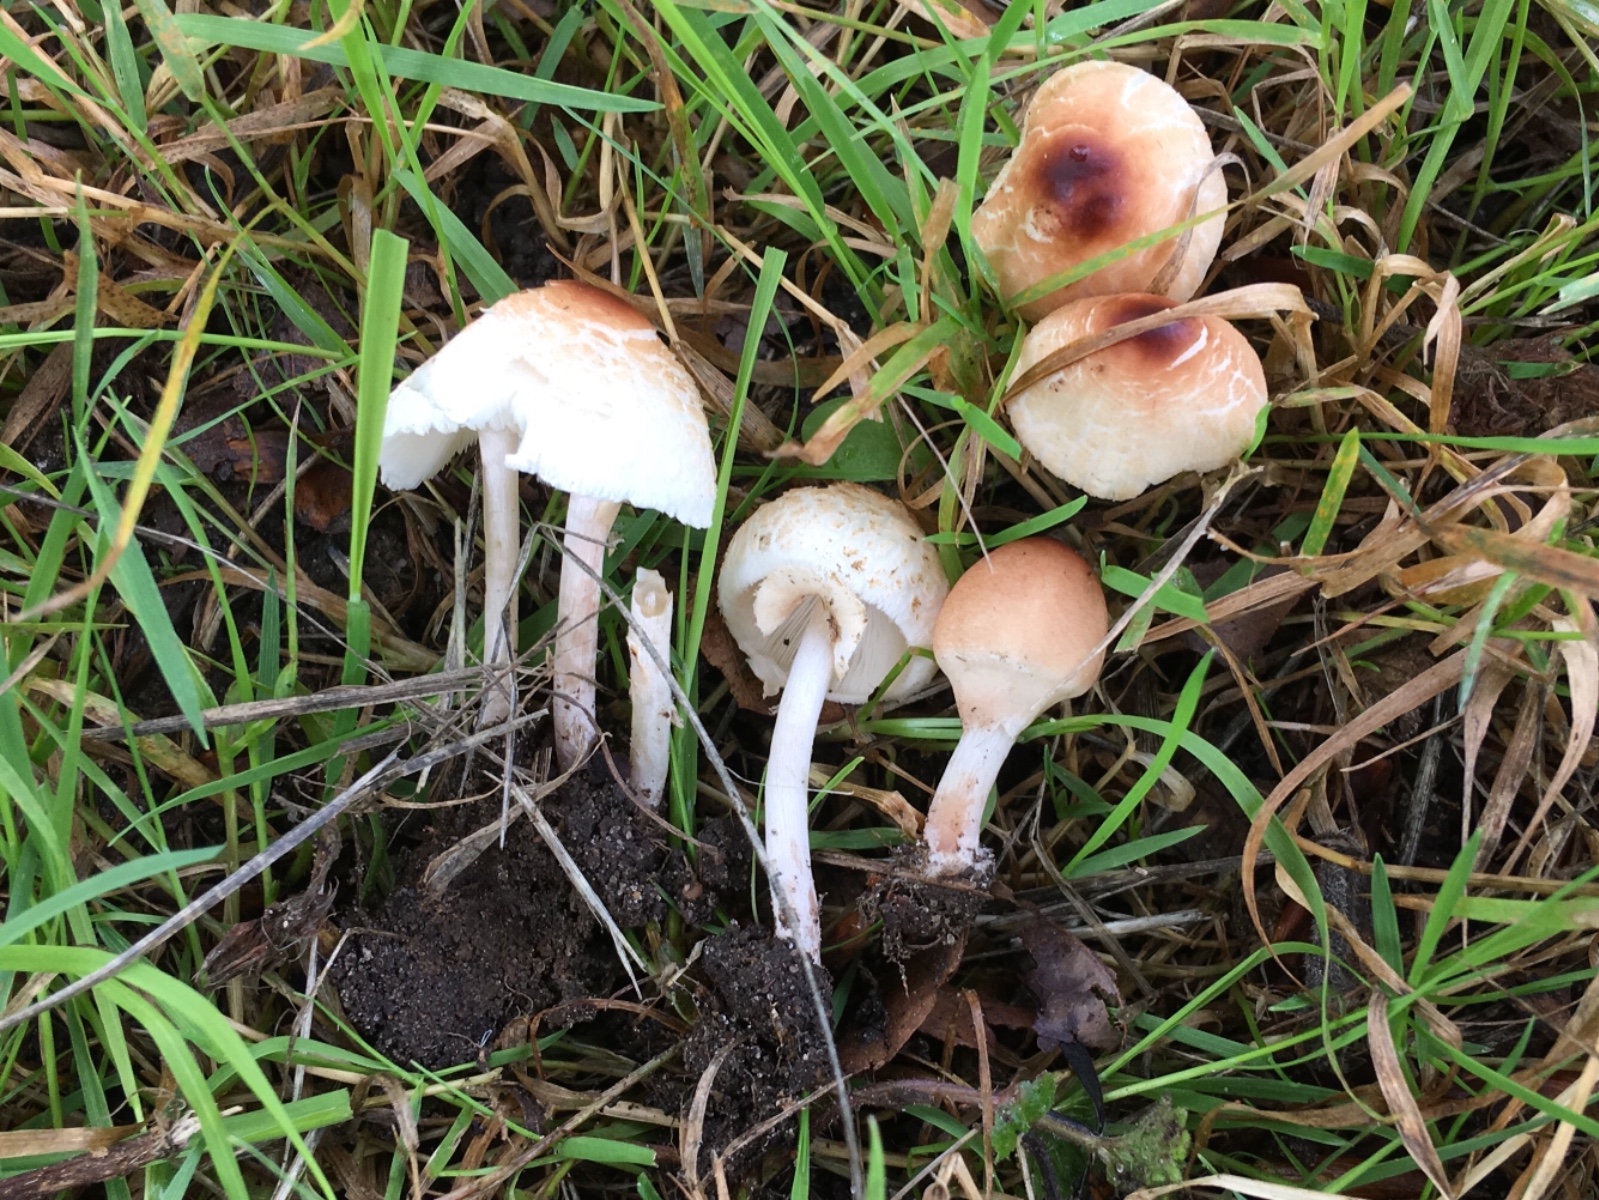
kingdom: Fungi
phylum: Basidiomycota
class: Agaricomycetes
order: Agaricales
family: Agaricaceae
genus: Lepiota
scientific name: Lepiota cristata
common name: stinkende parasolhat
